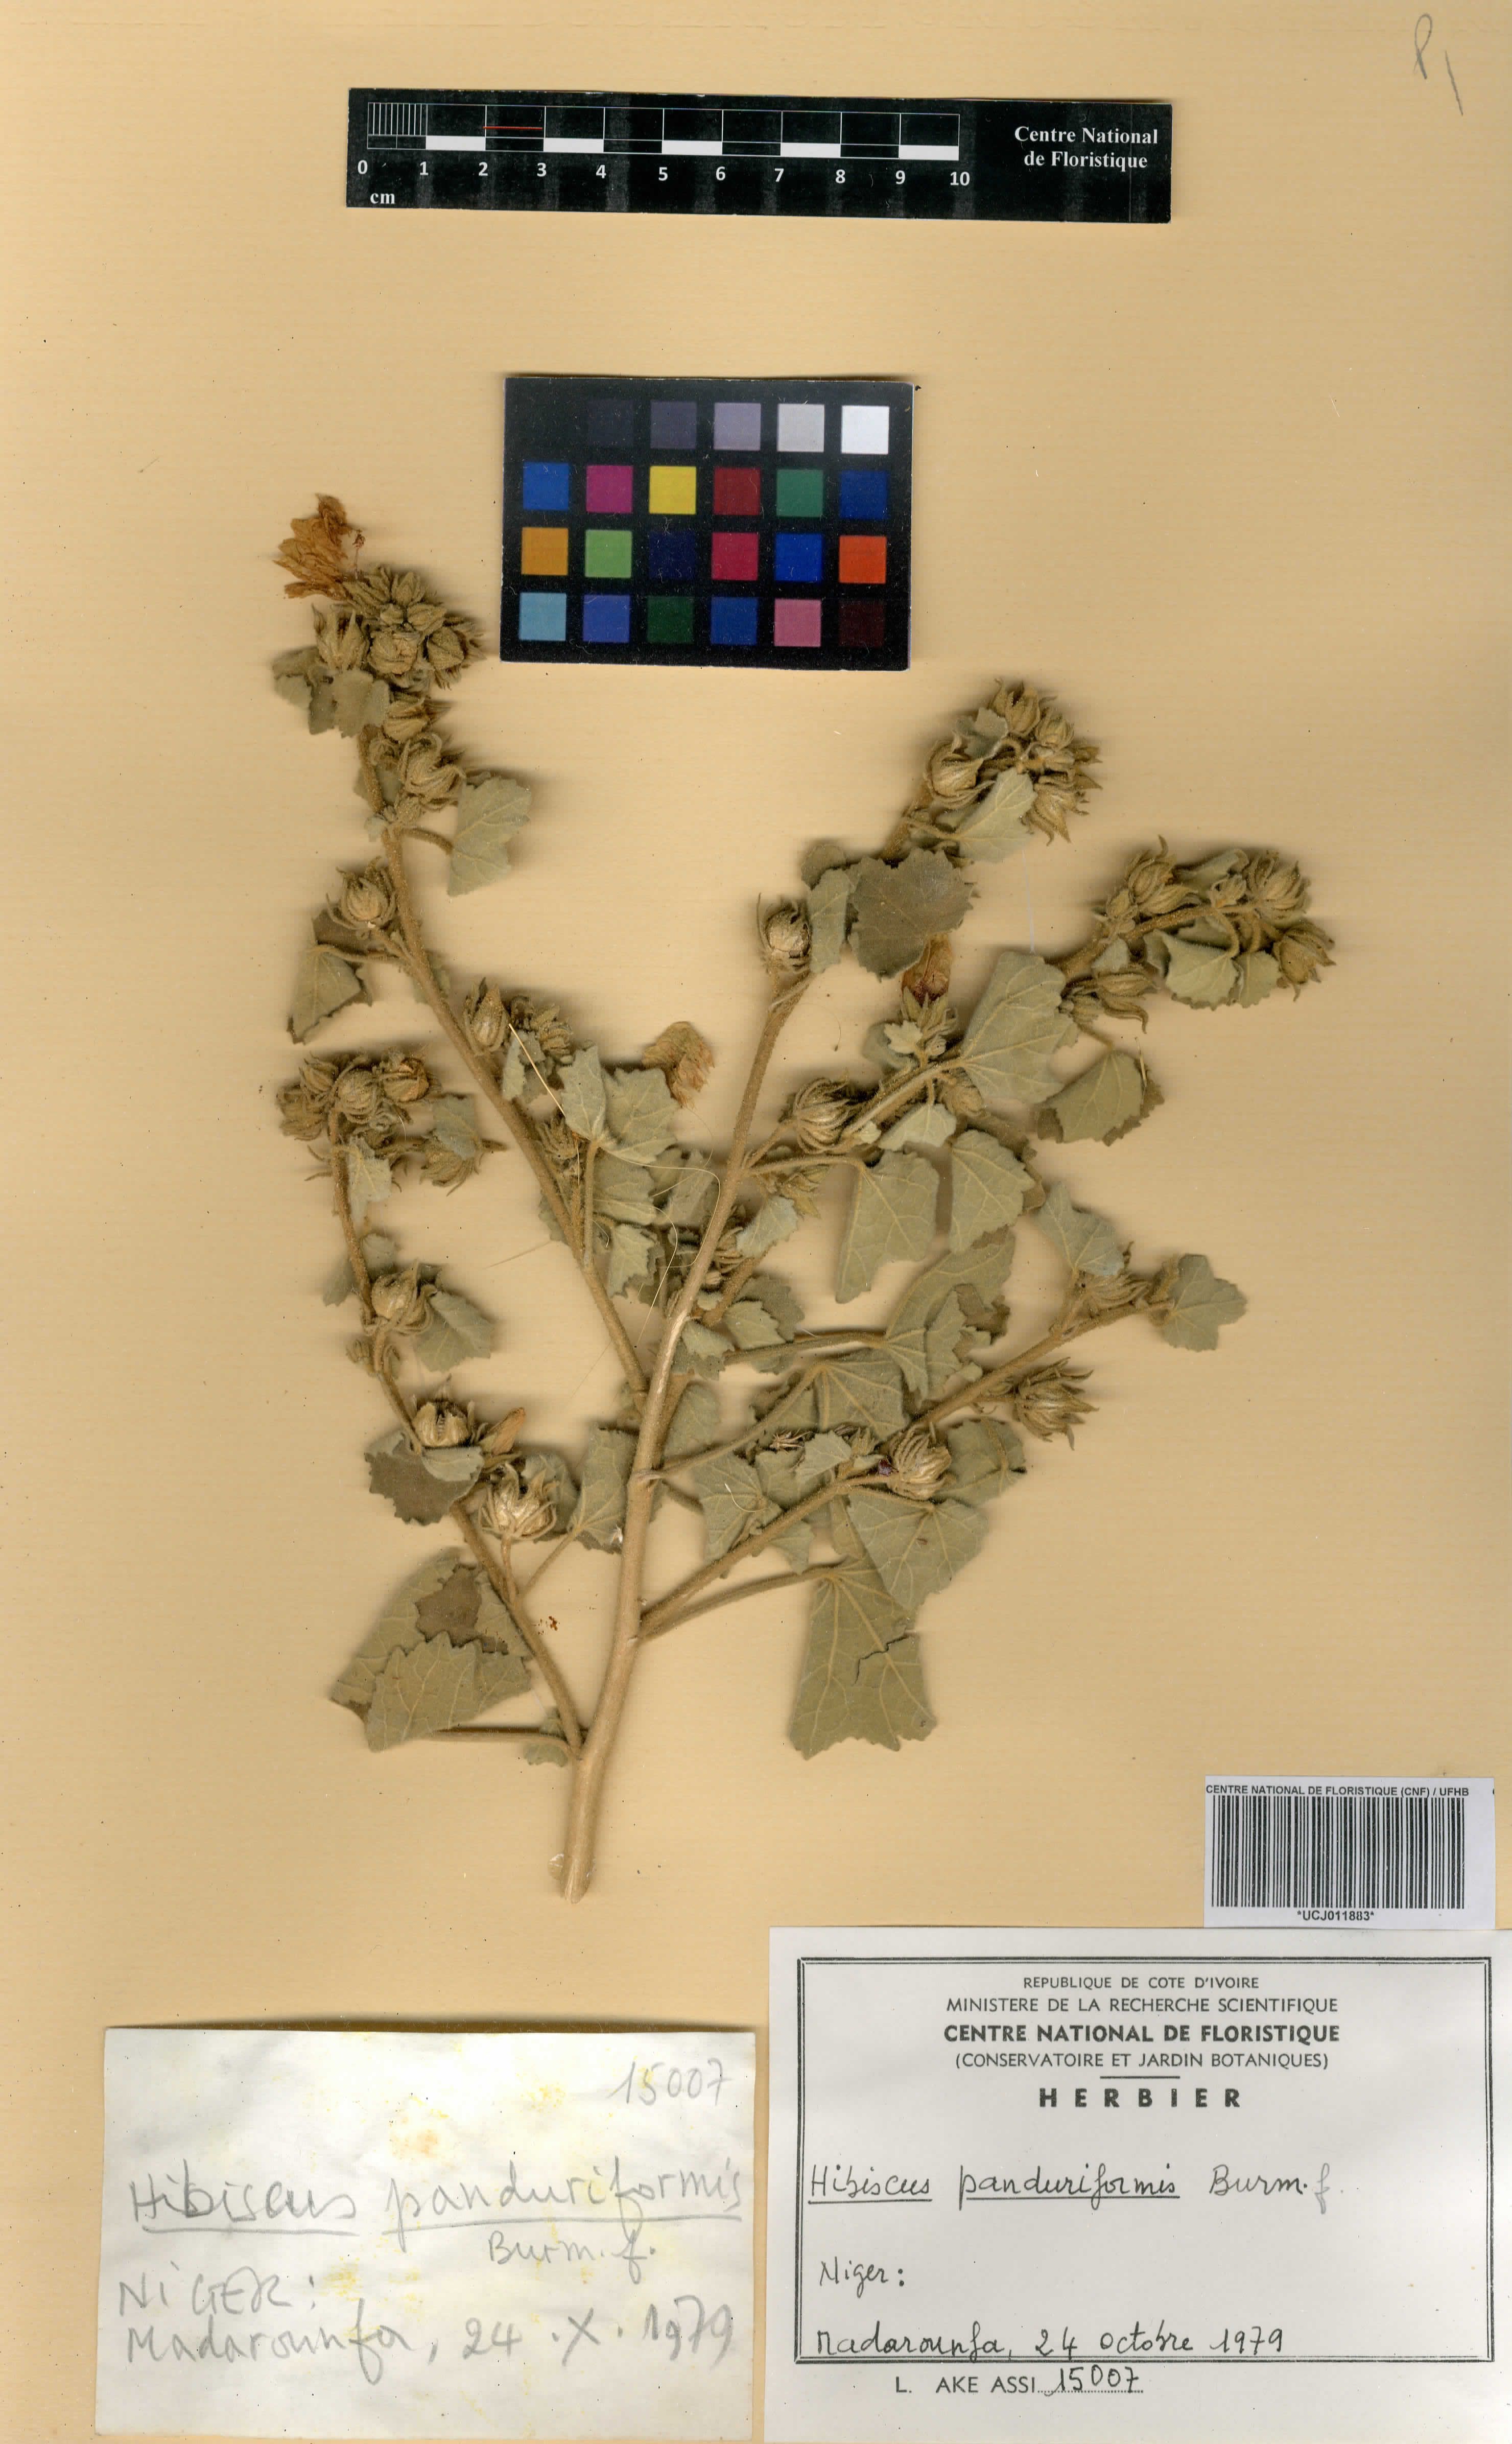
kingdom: Plantae
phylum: Tracheophyta
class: Magnoliopsida
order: Malvales
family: Malvaceae
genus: Hibiscus
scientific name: Hibiscus panduriformis
